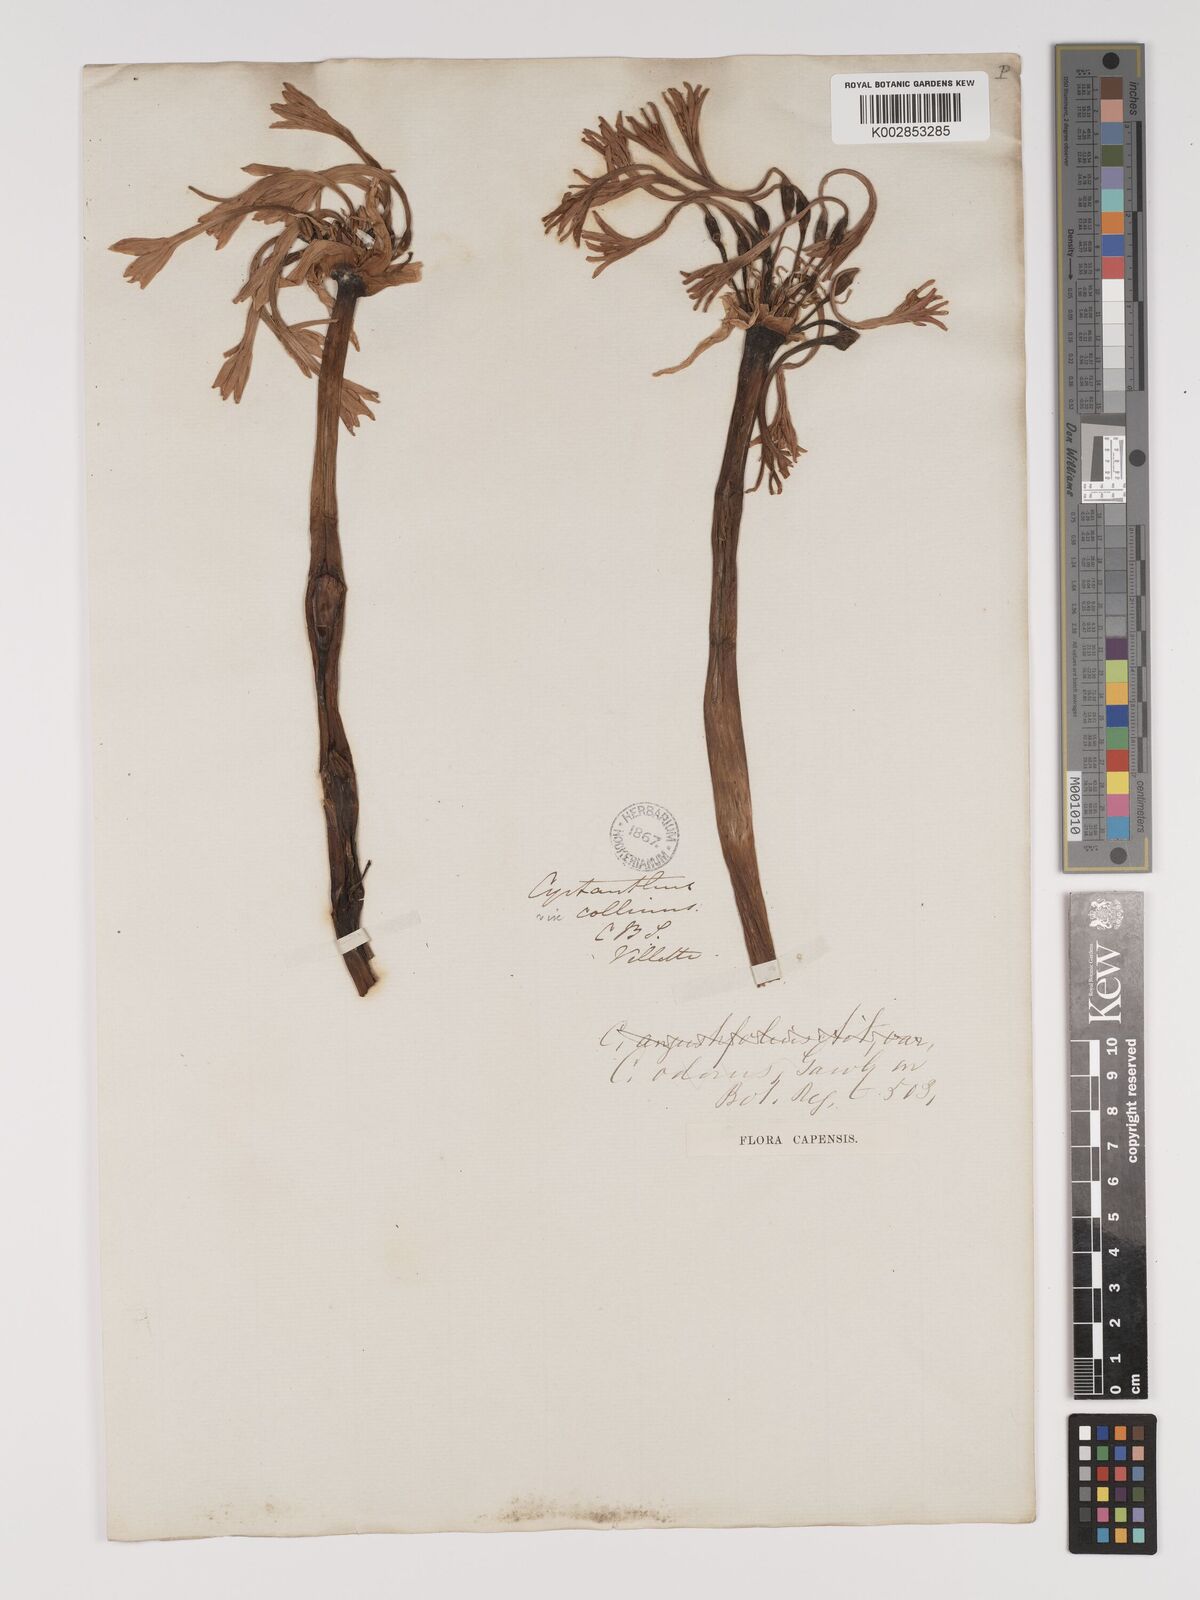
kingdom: Plantae
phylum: Tracheophyta
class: Liliopsida
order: Asparagales
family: Amaryllidaceae
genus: Cyrtanthus
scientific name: Cyrtanthus herrei
